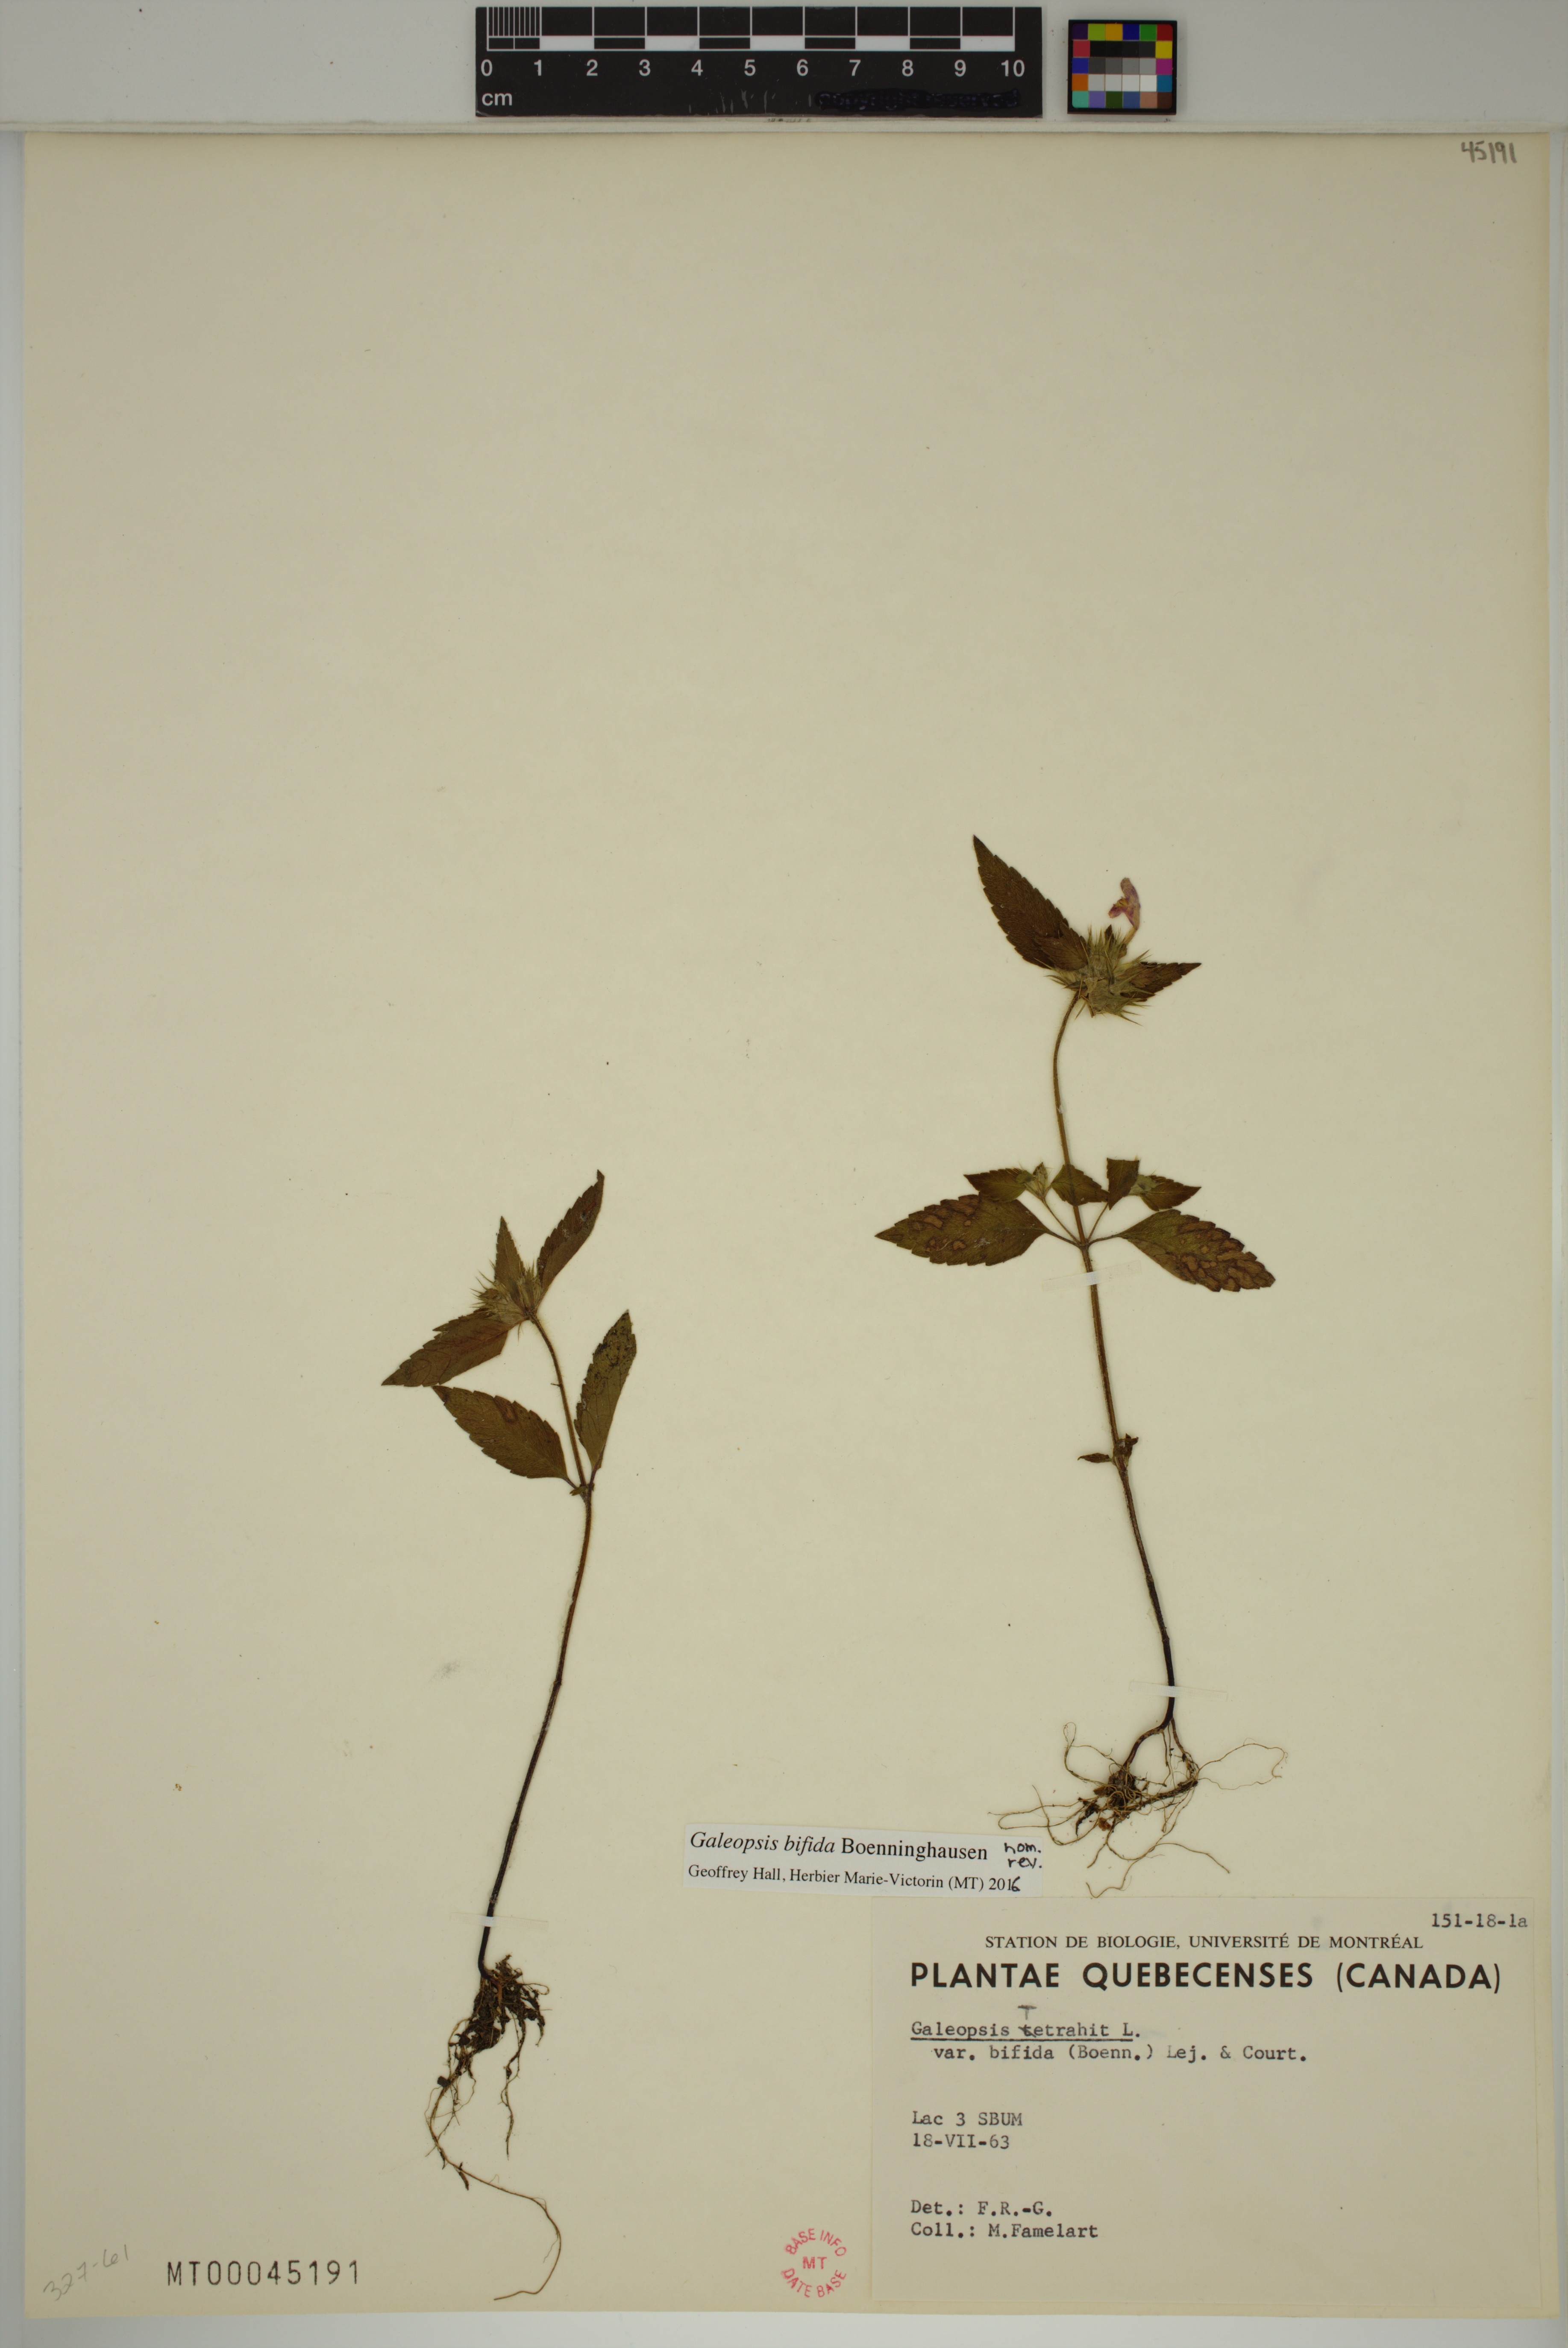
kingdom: Plantae
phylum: Tracheophyta
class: Magnoliopsida
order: Lamiales
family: Lamiaceae
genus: Galeopsis
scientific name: Galeopsis bifida
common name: Bifid hemp-nettle
